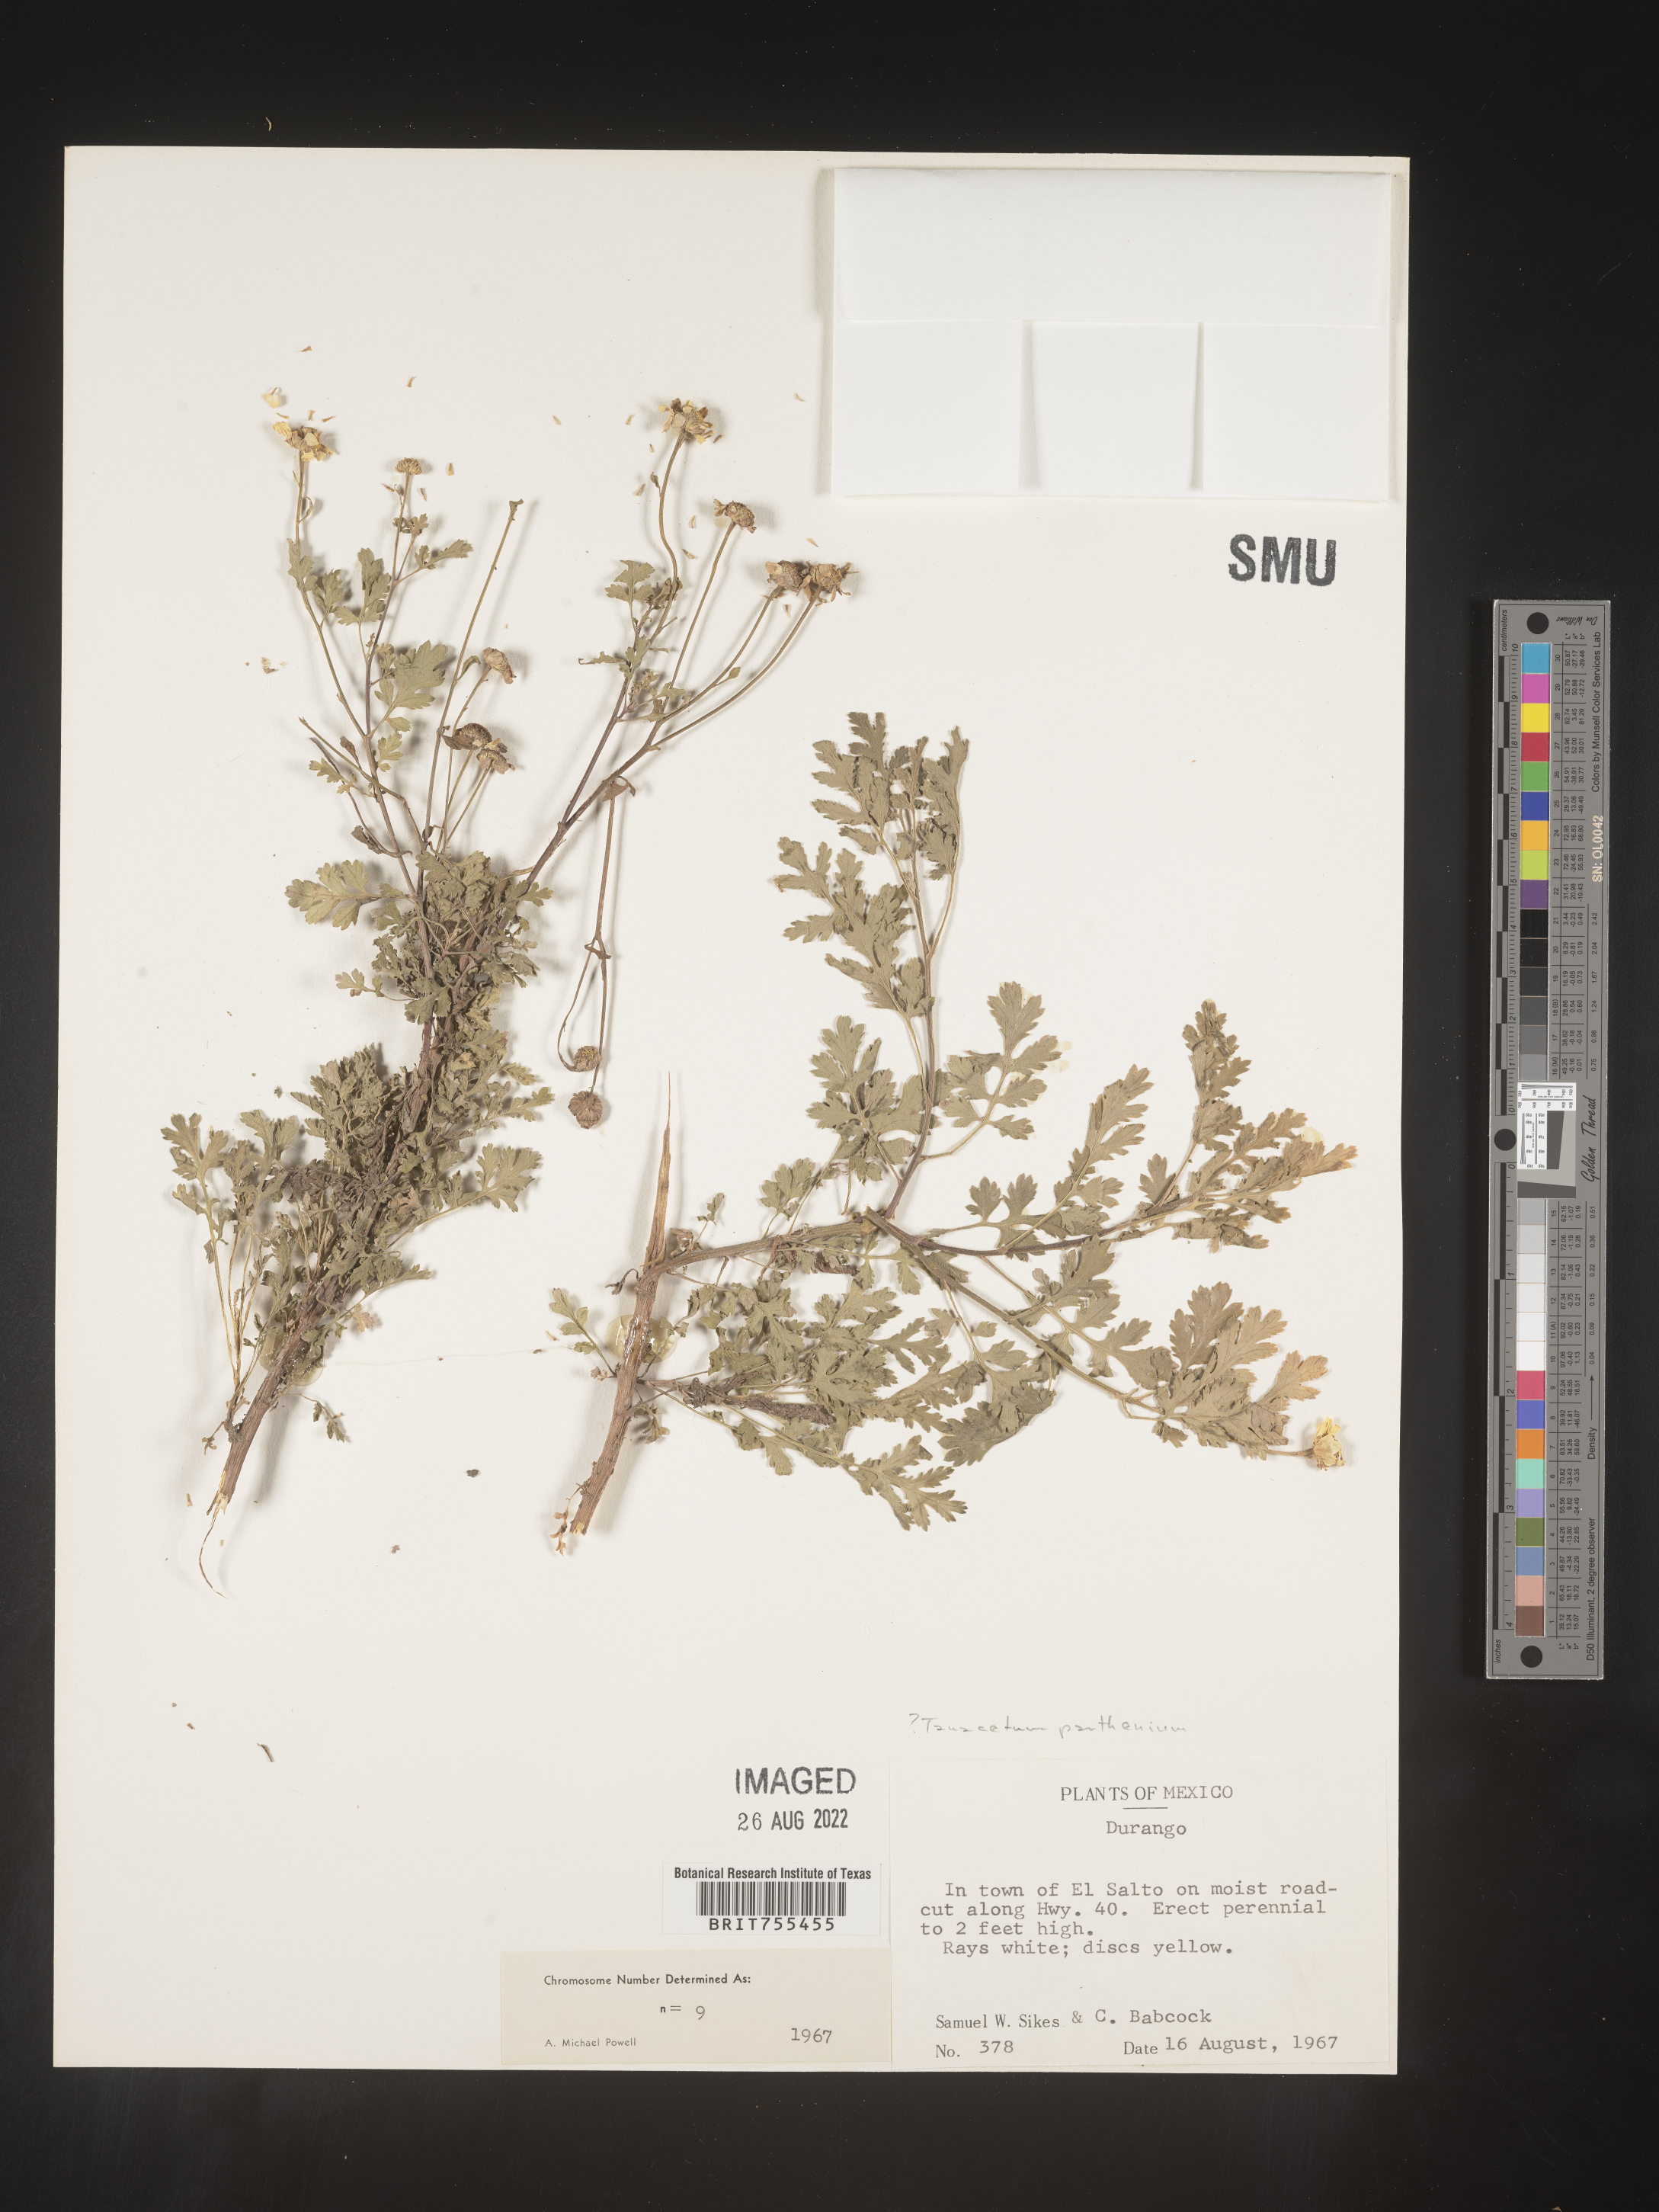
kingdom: Plantae
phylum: Tracheophyta
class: Magnoliopsida
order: Asterales
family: Asteraceae
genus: Tanacetum
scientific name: Tanacetum
